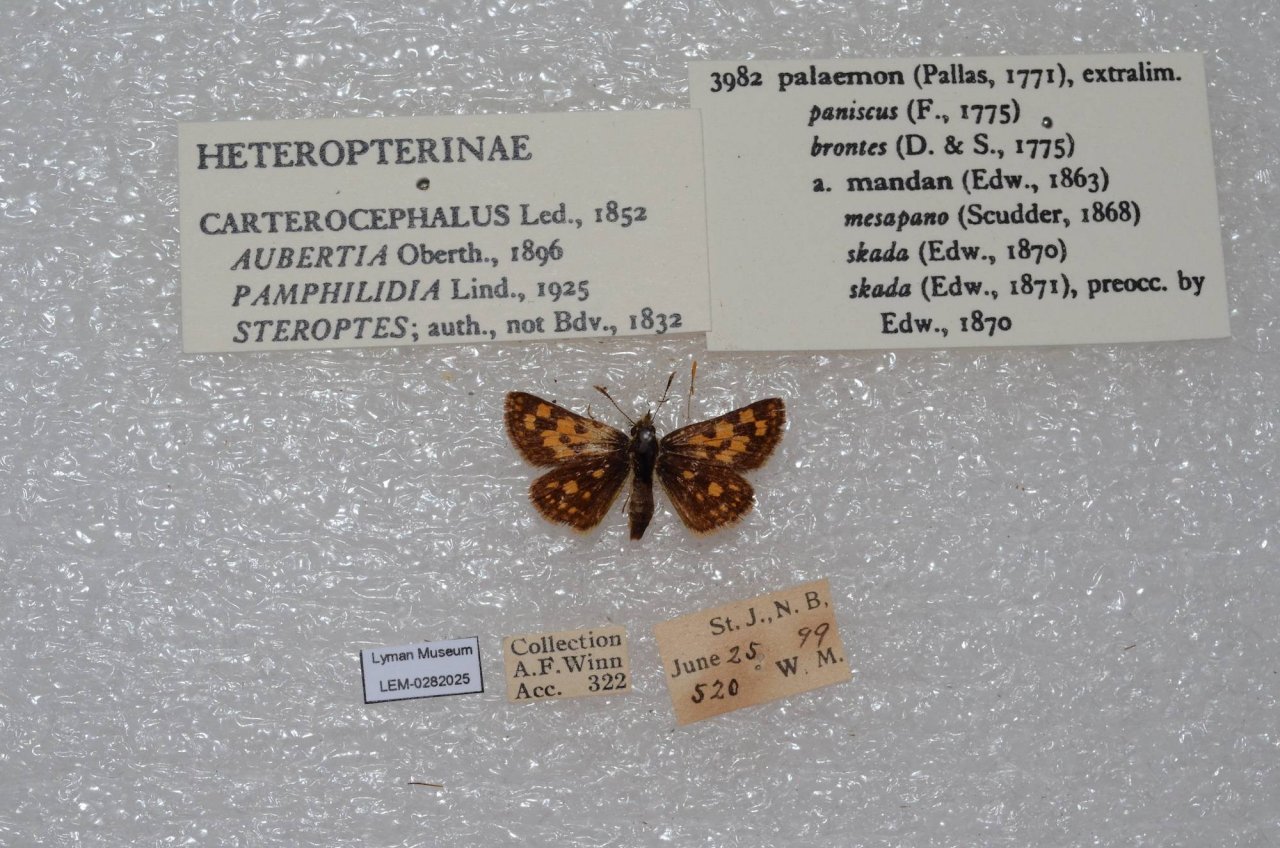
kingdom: Animalia
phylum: Arthropoda
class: Insecta
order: Lepidoptera
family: Hesperiidae
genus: Carterocephalus
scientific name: Carterocephalus palaemon
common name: Chequered Skipper
